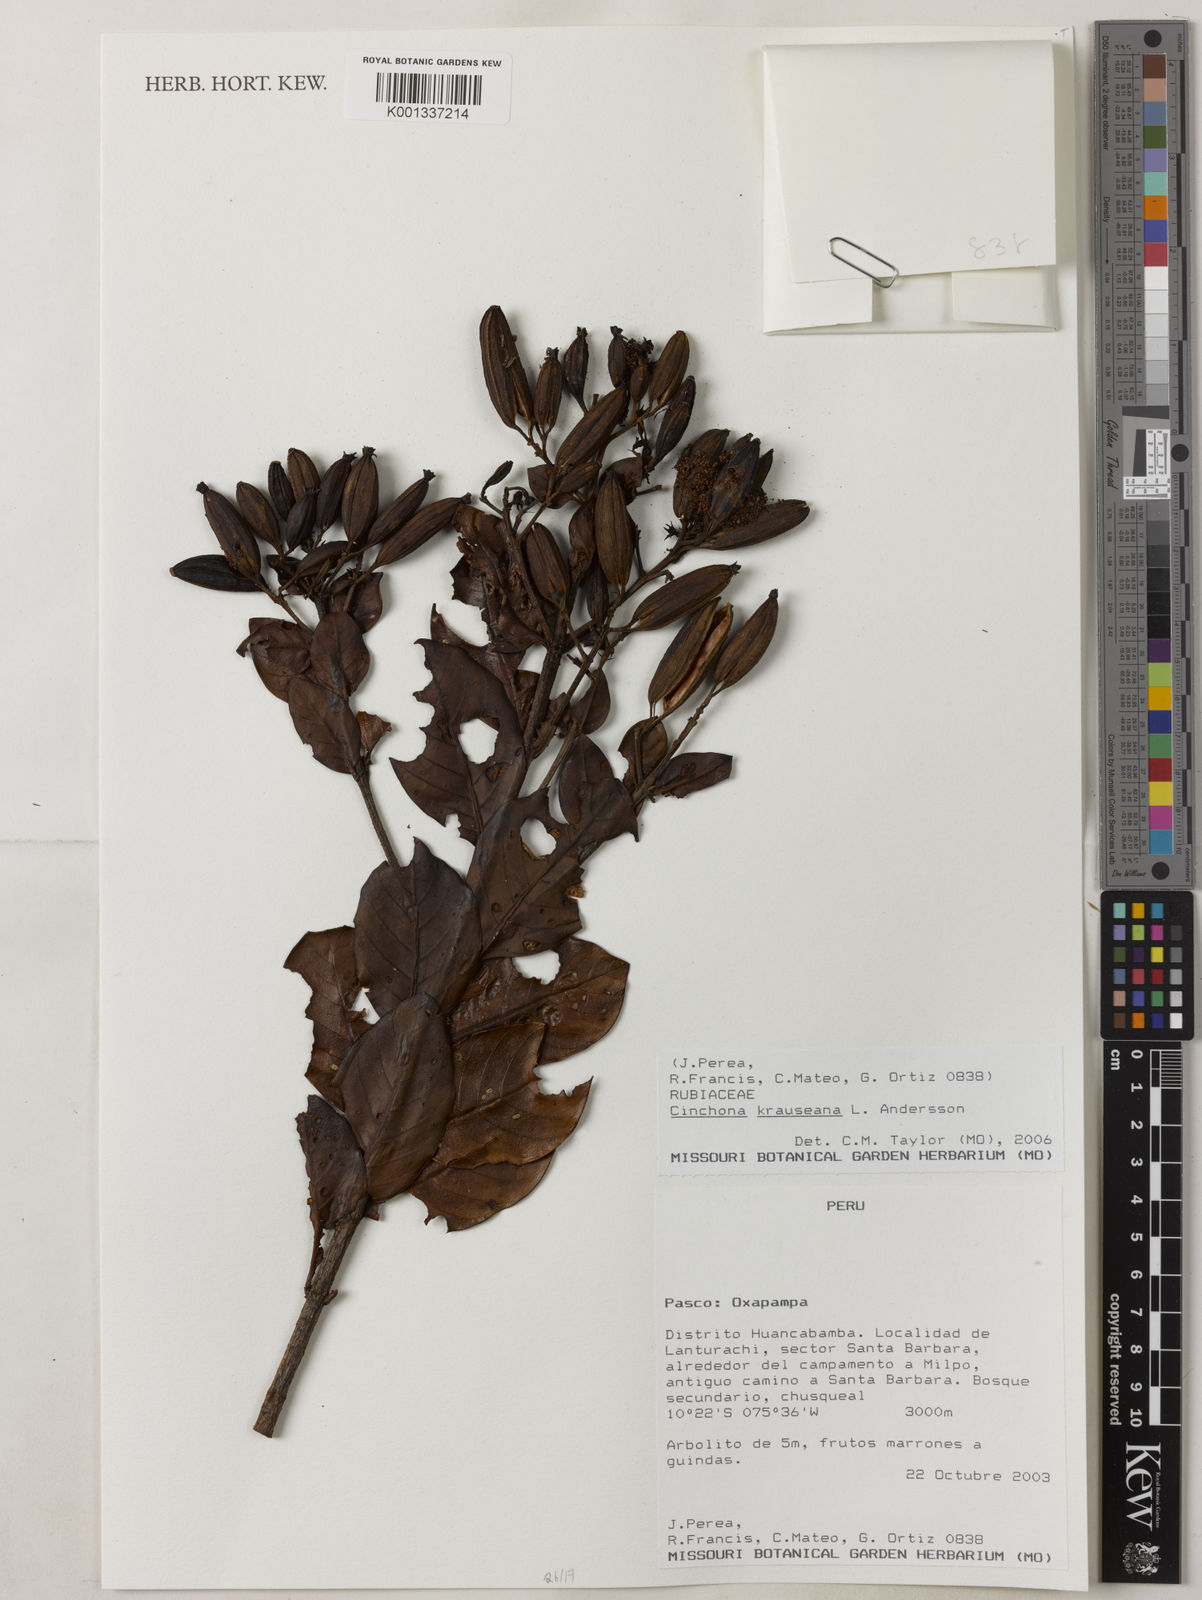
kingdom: Plantae
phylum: Tracheophyta
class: Magnoliopsida
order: Gentianales
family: Rubiaceae
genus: Cinchona
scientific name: Cinchona krauseana
